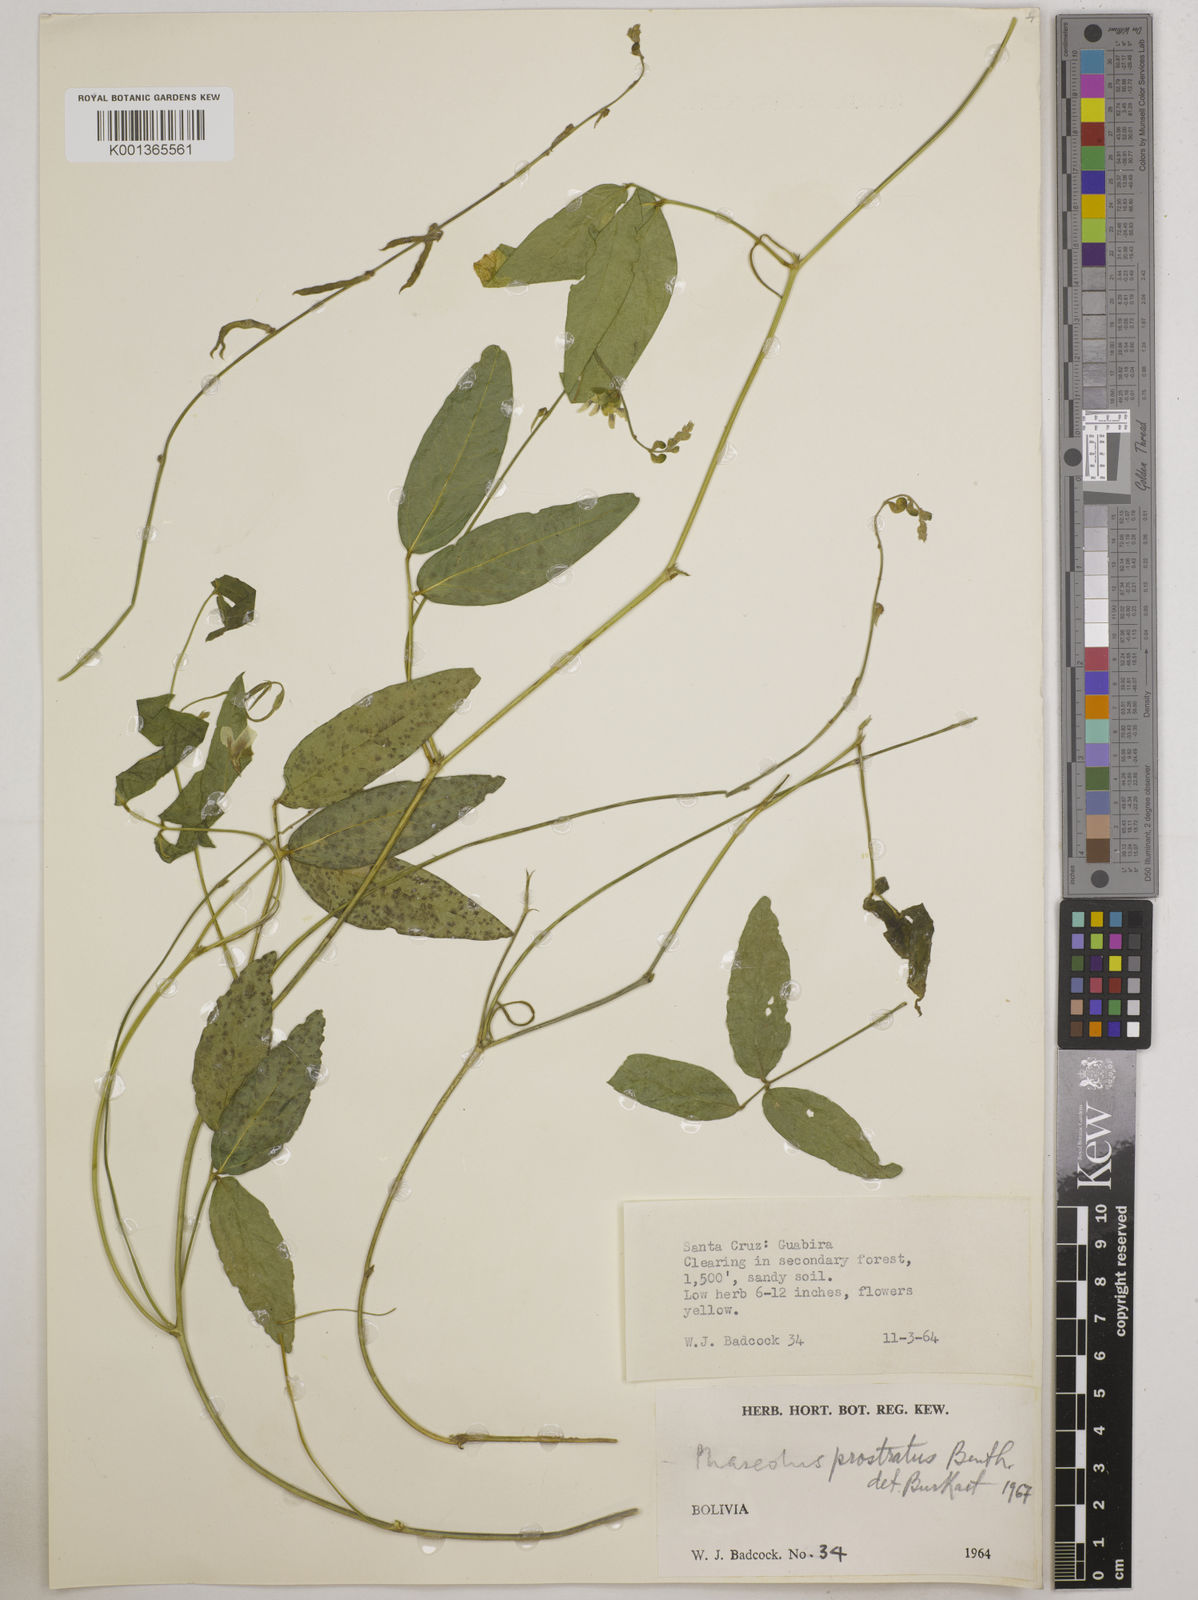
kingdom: Plantae
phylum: Tracheophyta
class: Magnoliopsida
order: Fabales
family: Fabaceae
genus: Macroptilium
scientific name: Macroptilium prostratum
